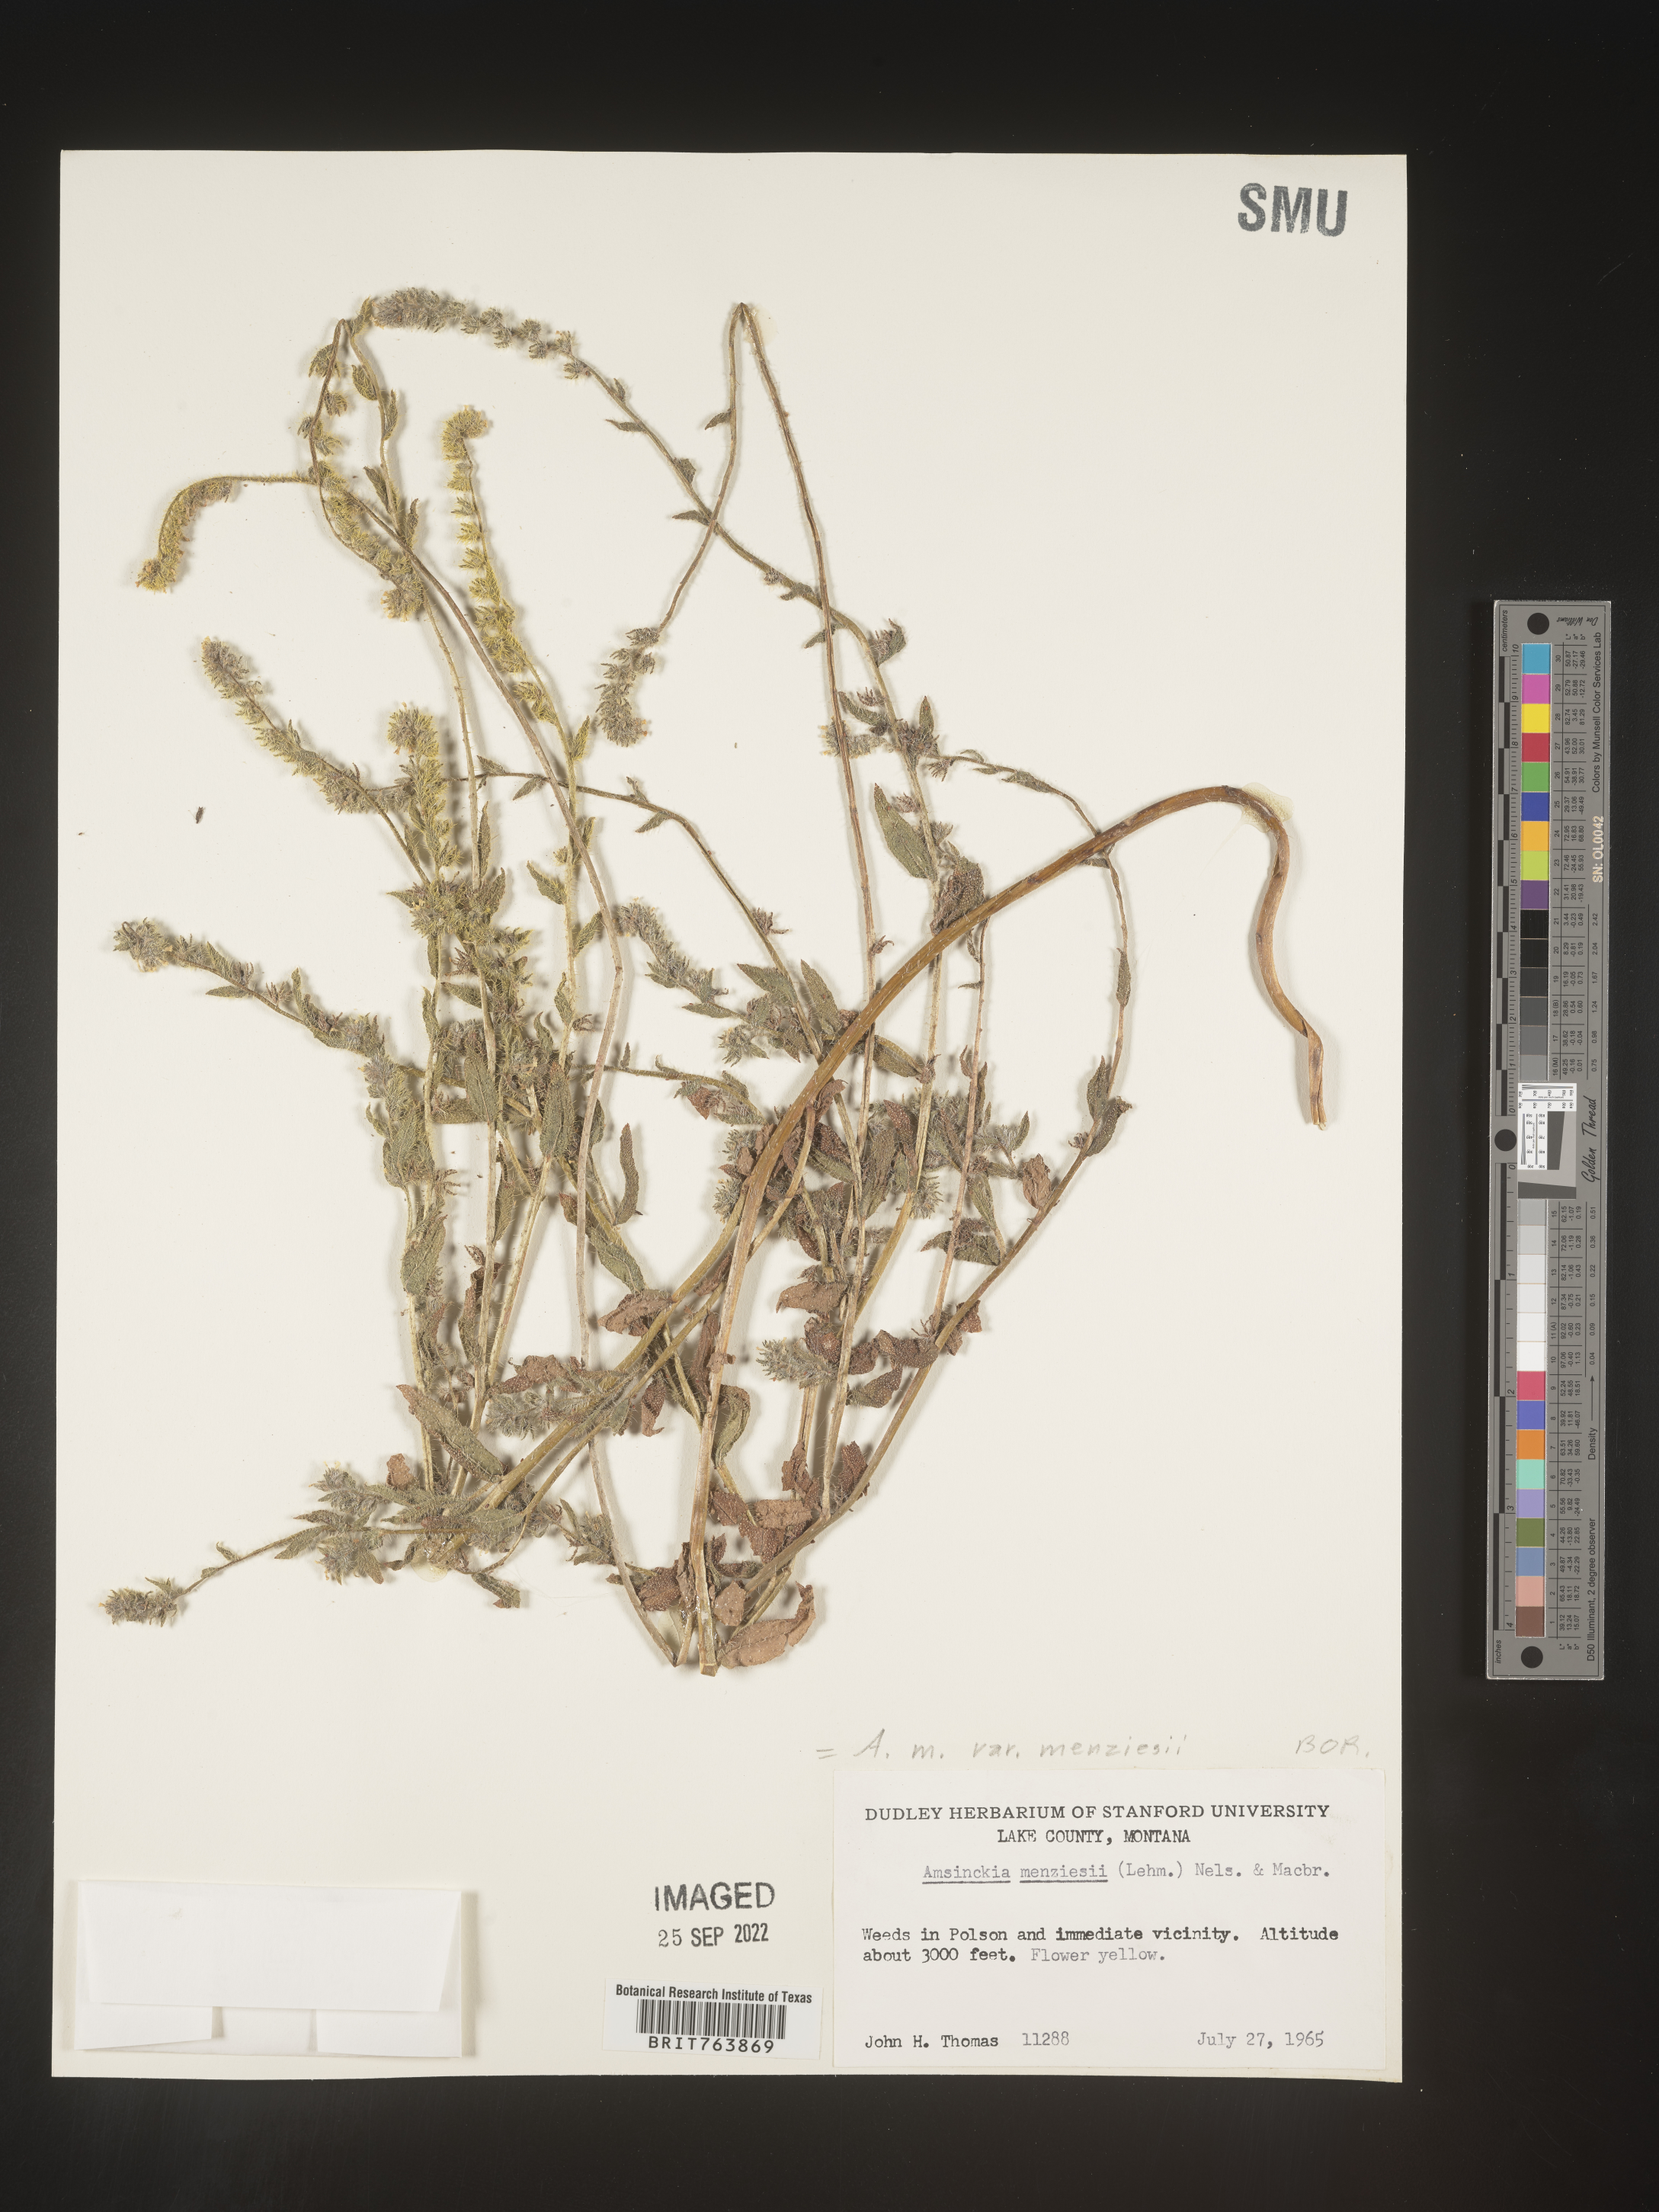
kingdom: Plantae
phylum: Tracheophyta
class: Magnoliopsida
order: Boraginales
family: Boraginaceae
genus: Amsinckia
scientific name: Amsinckia menziesii
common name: Menzies' fiddleneck
